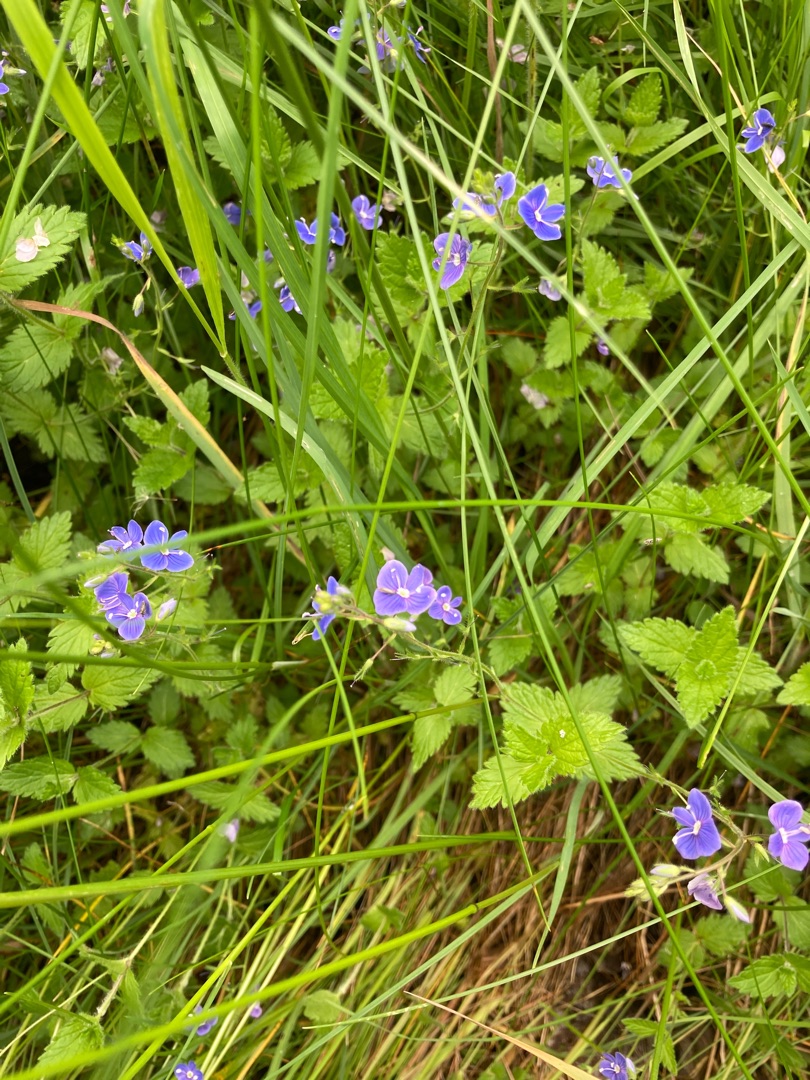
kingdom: Plantae
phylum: Tracheophyta
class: Magnoliopsida
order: Lamiales
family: Plantaginaceae
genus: Veronica
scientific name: Veronica chamaedrys
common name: Tveskægget ærenpris
